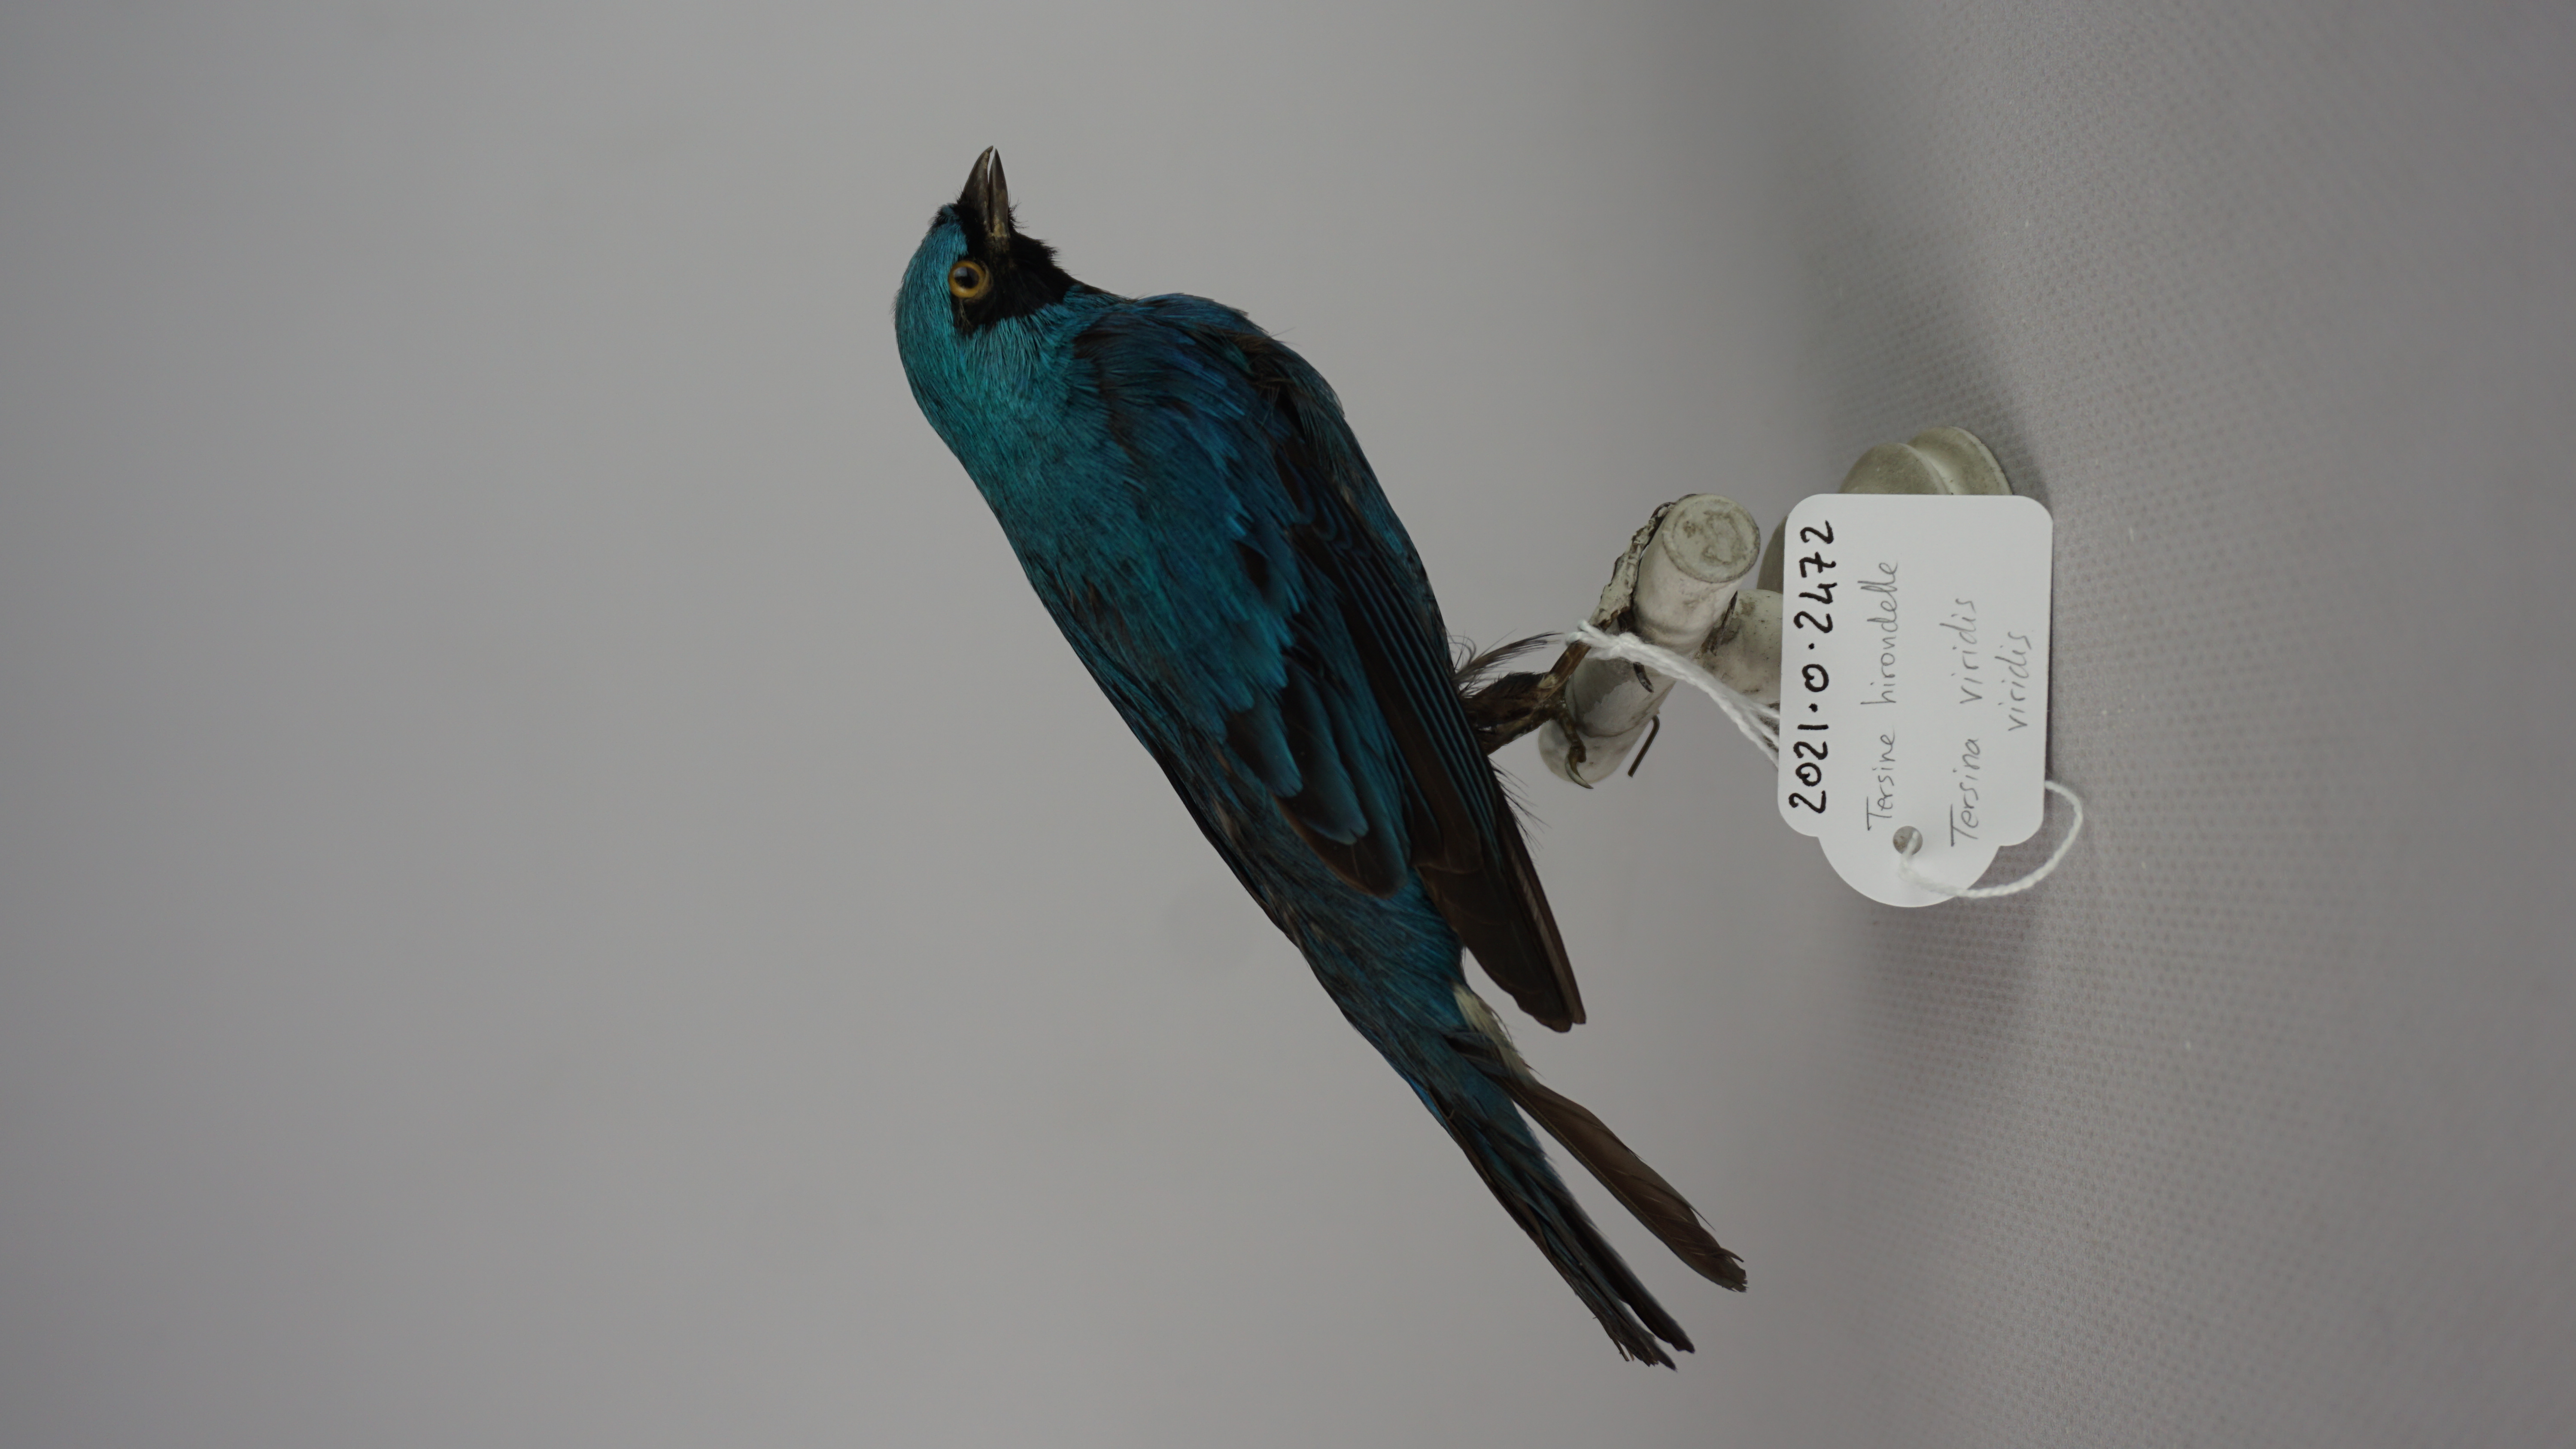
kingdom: Animalia
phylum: Chordata
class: Aves
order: Passeriformes
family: Thraupidae
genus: Tersina
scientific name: Tersina viridis
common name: Swallow tanager
